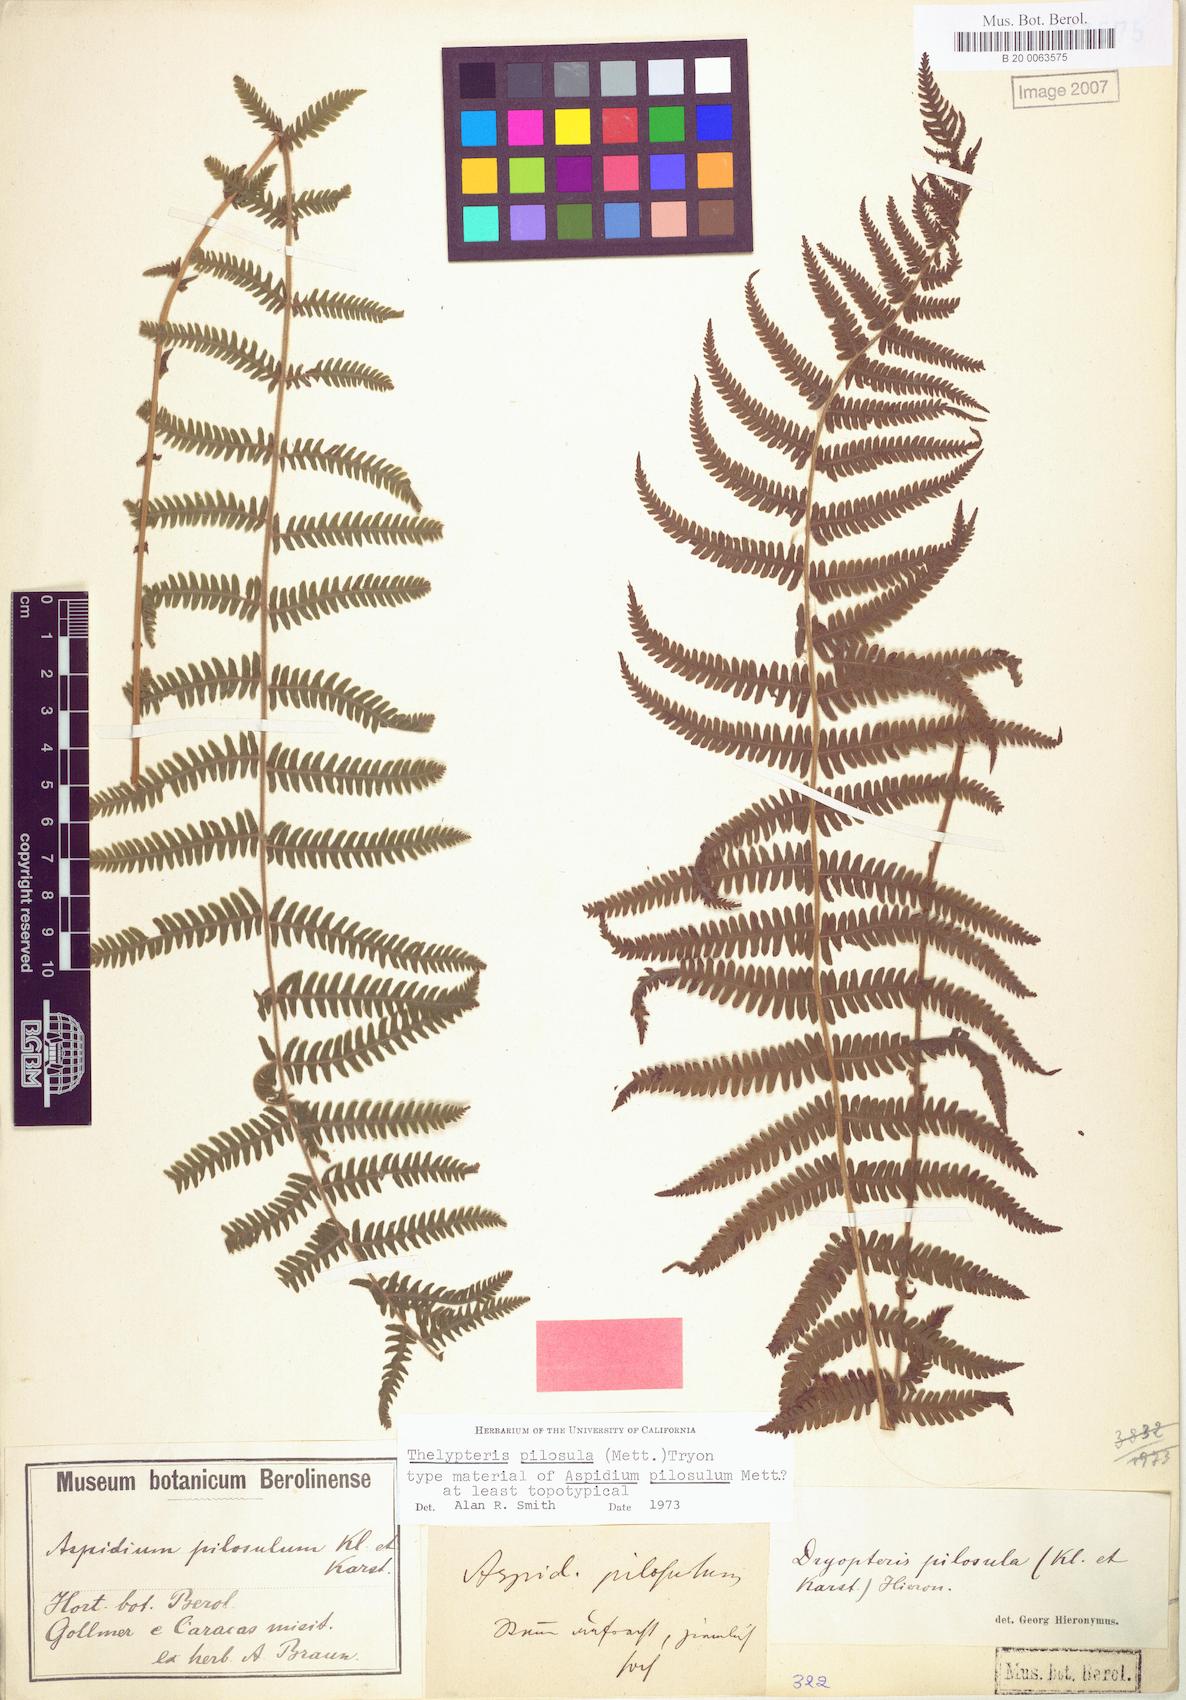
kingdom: Plantae
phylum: Tracheophyta
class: Polypodiopsida
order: Polypodiales
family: Thelypteridaceae
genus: Amauropelta
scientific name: Amauropelta pilosula
